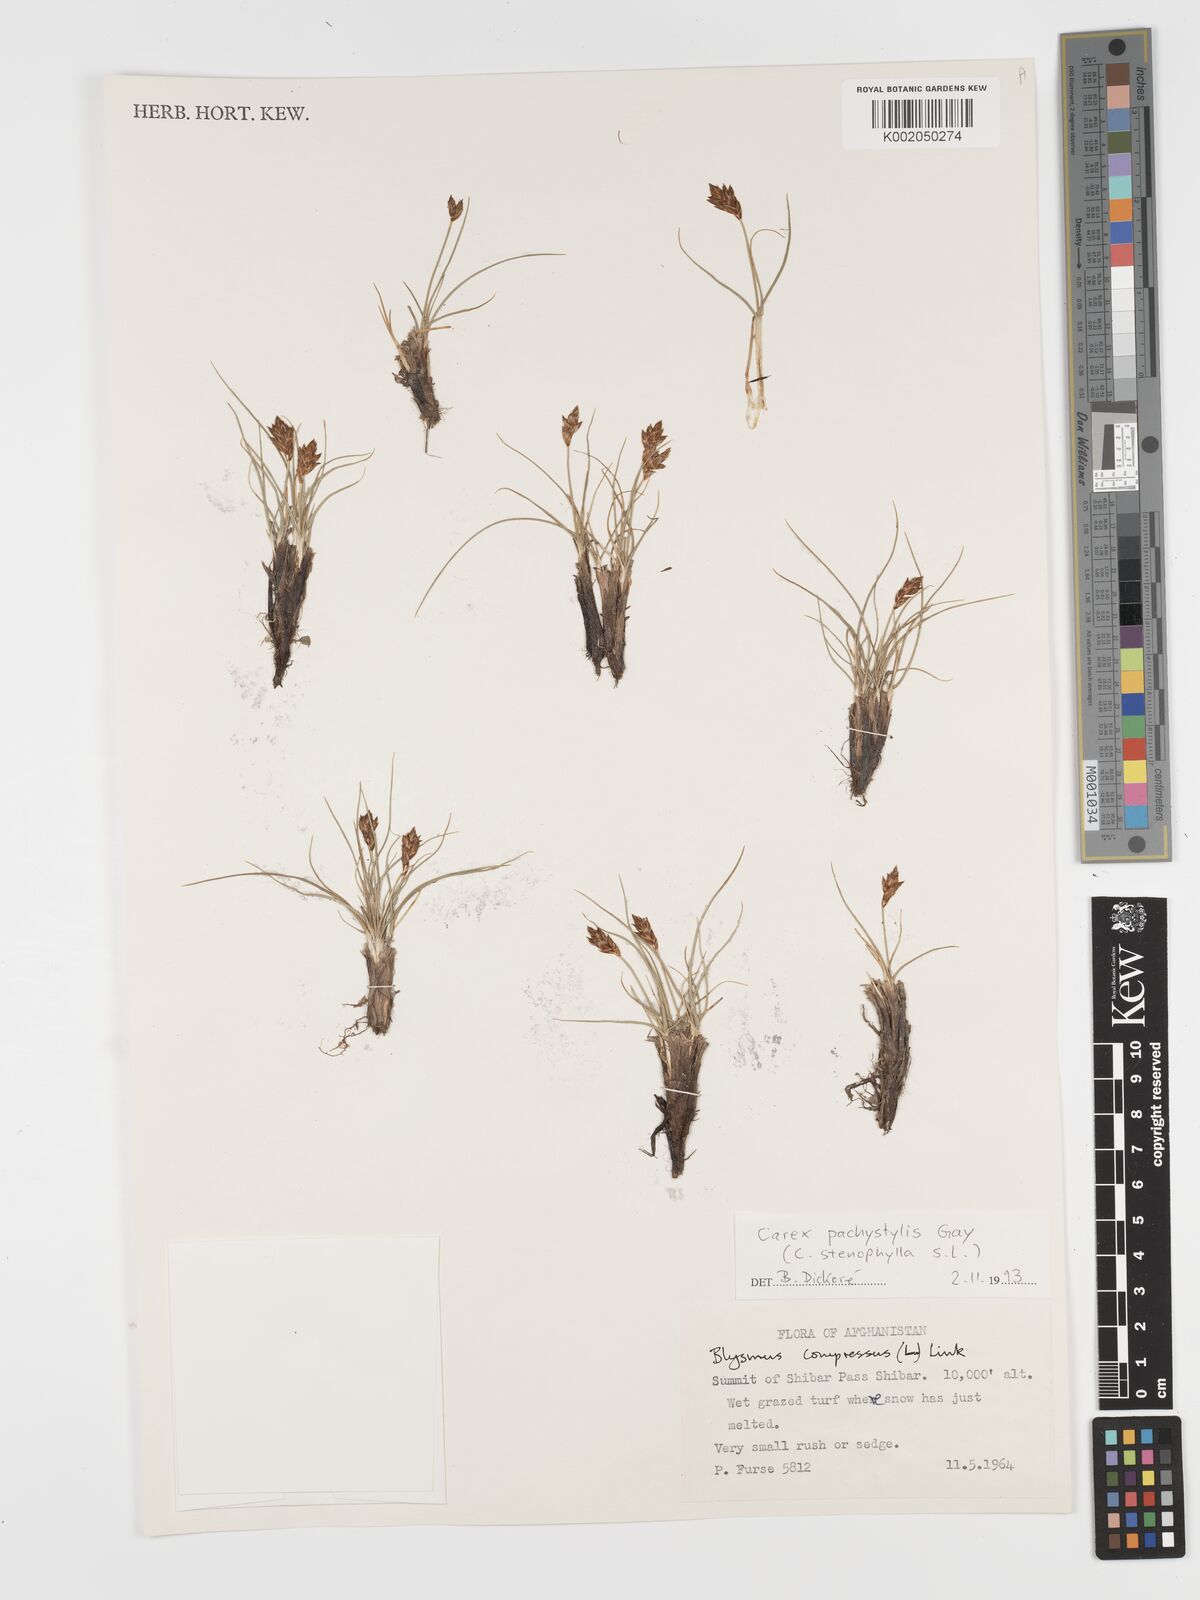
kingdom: Plantae
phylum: Tracheophyta
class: Liliopsida
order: Poales
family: Cyperaceae
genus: Blysmus
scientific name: Blysmus compressus
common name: Flat-sedge
